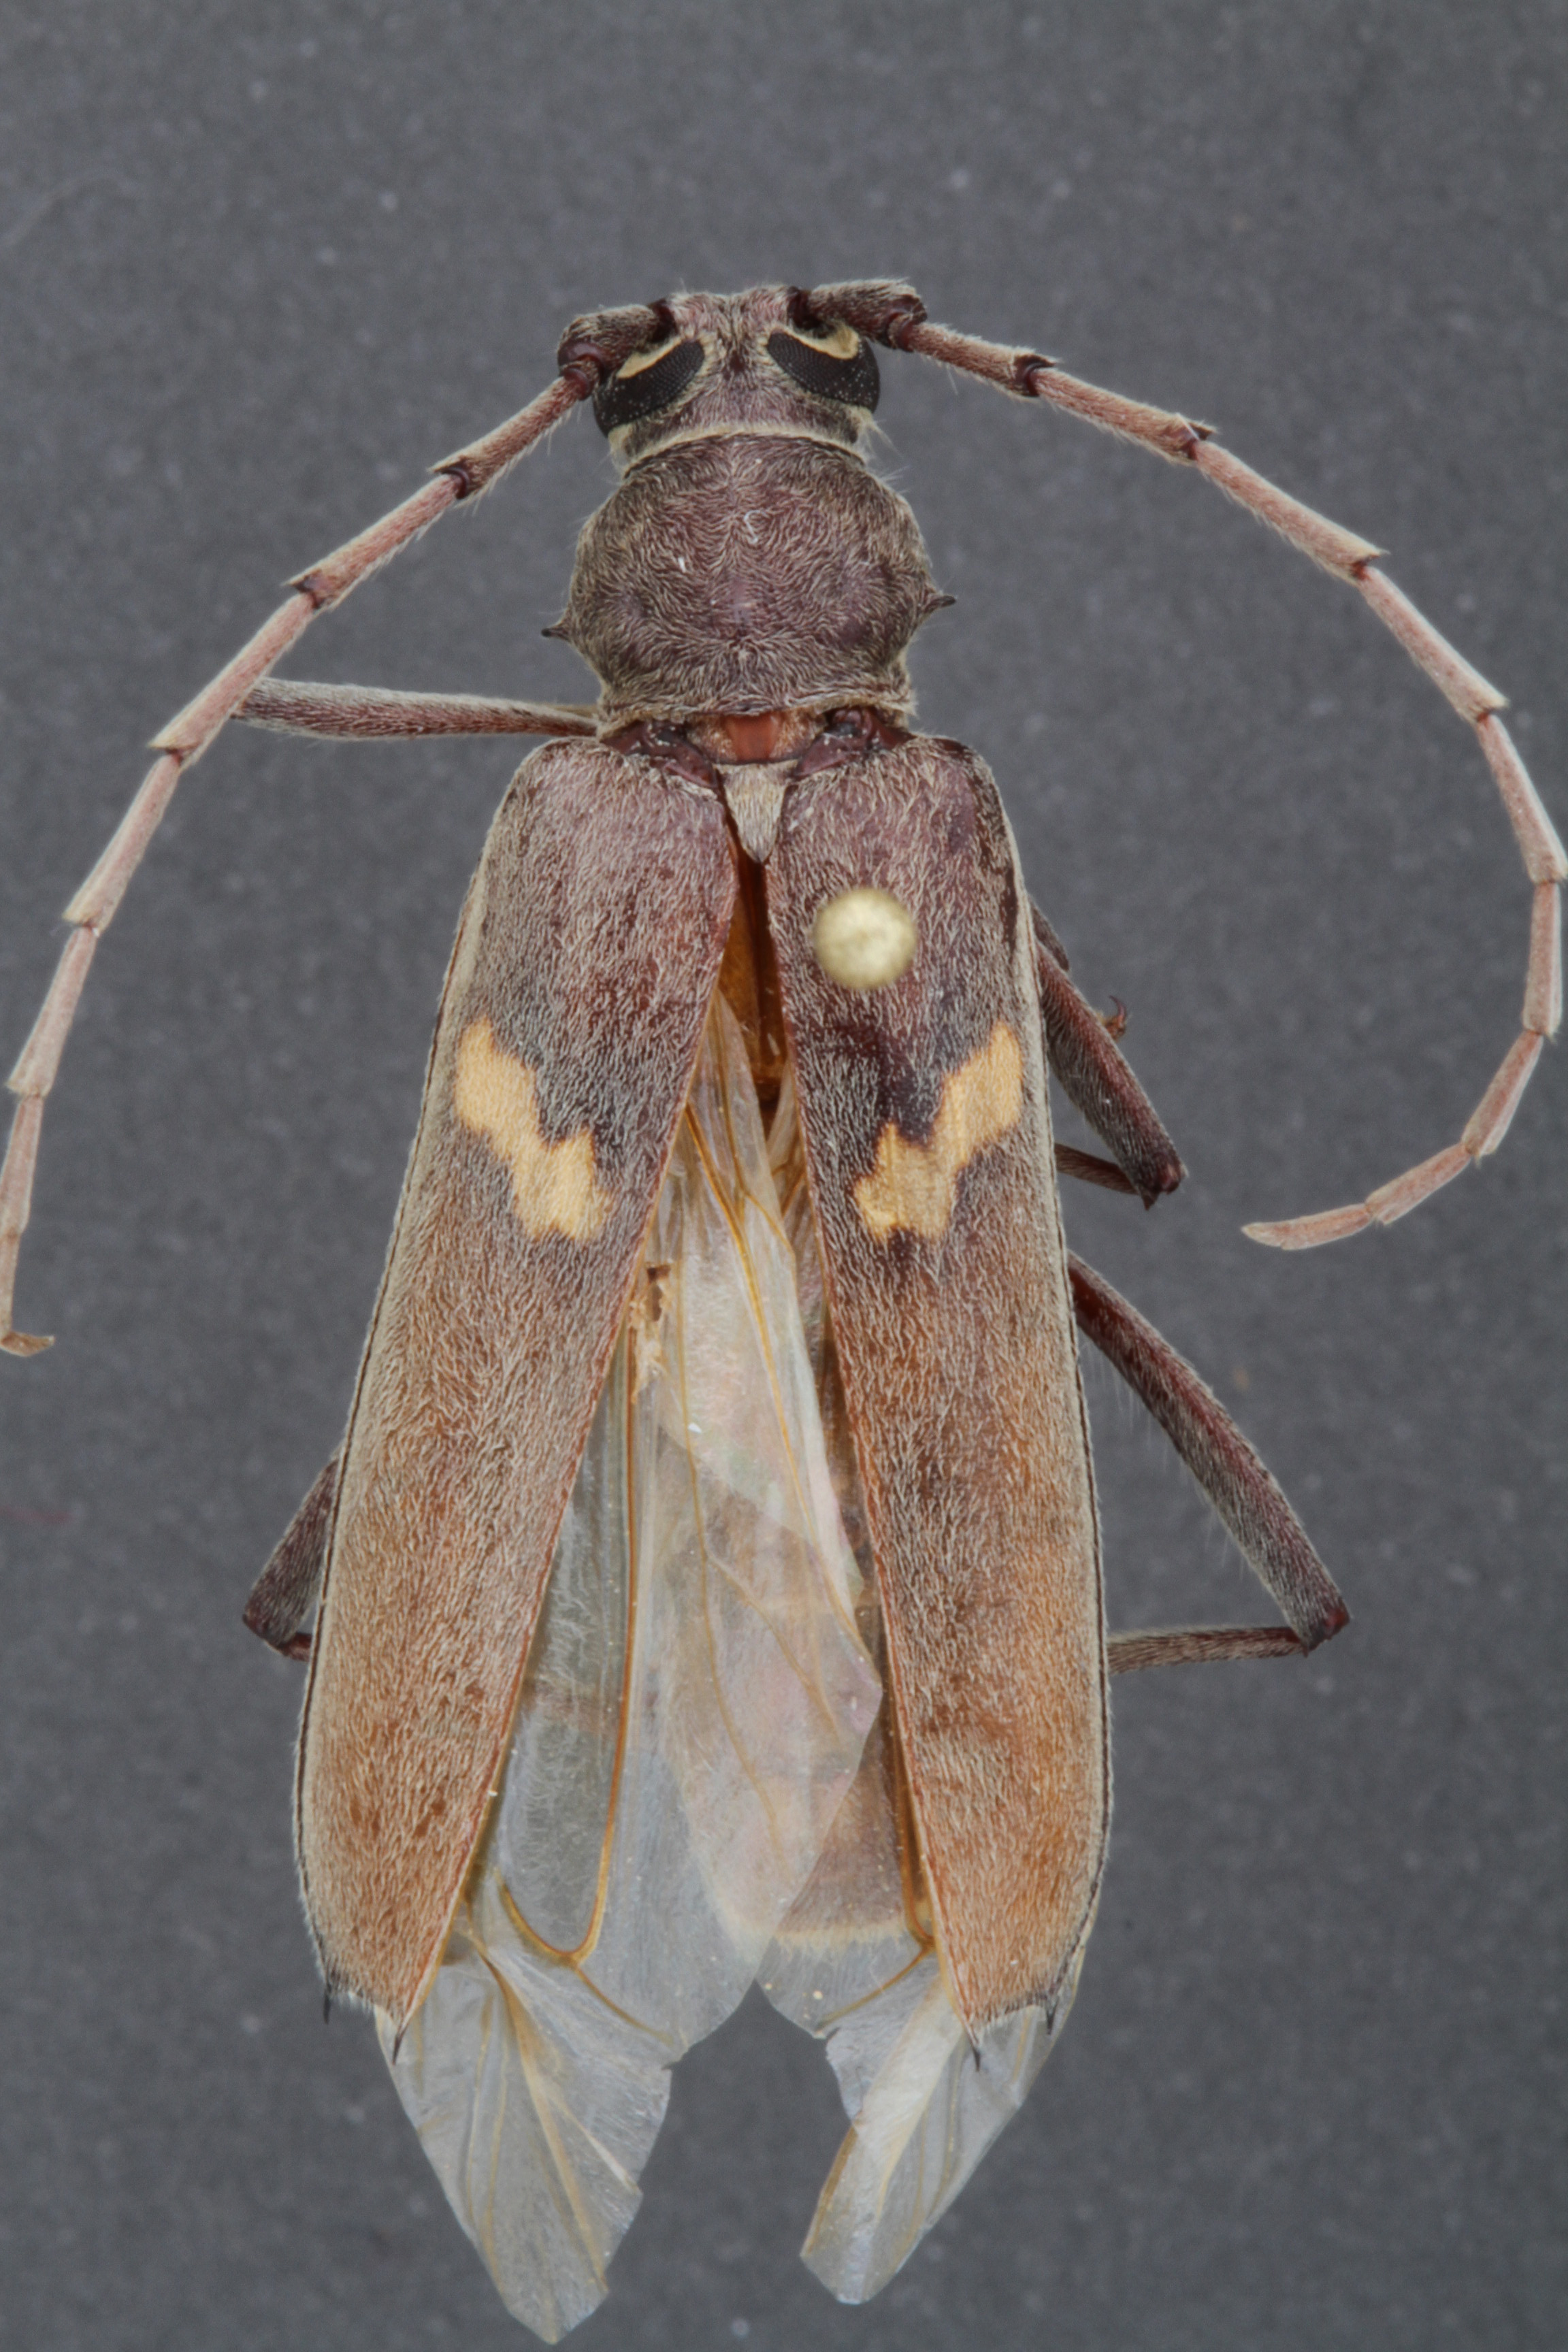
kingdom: Animalia
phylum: Arthropoda
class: Insecta
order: Coleoptera
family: Cerambycidae
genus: Knulliana
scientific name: Knulliana cincta
